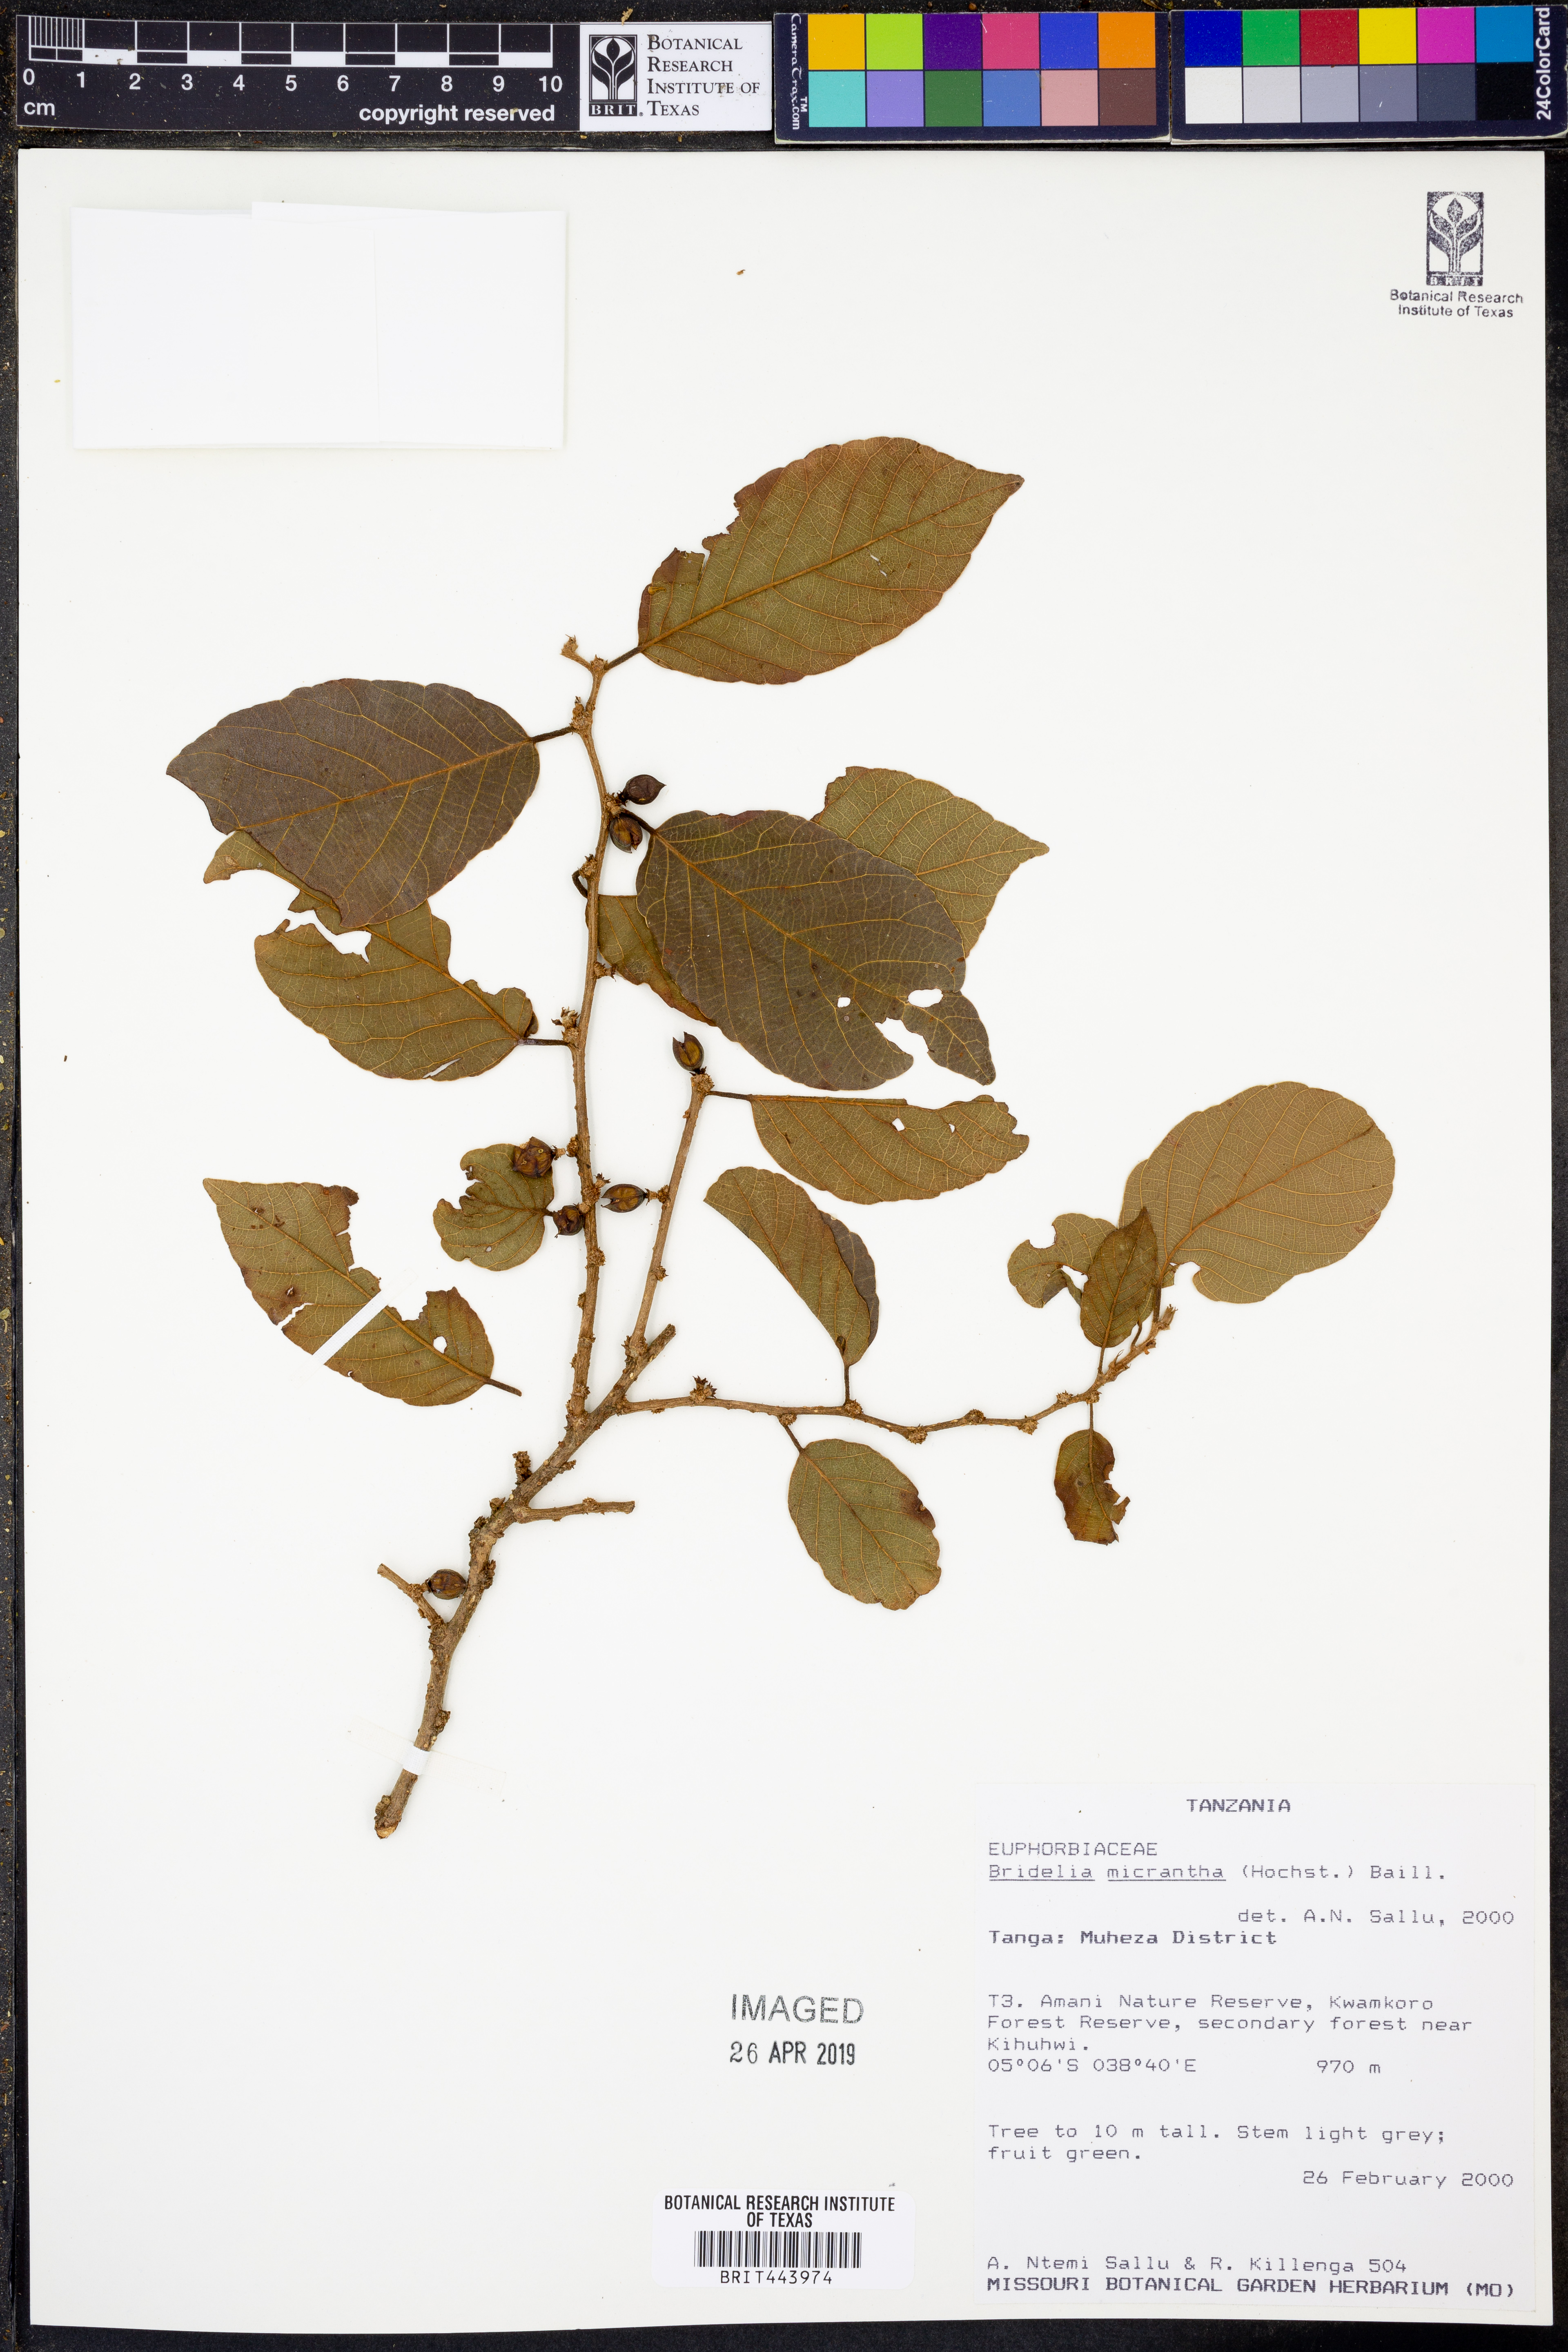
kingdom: Plantae
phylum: Tracheophyta
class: Magnoliopsida
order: Malpighiales
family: Phyllanthaceae
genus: Bridelia
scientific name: Bridelia micrantha
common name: Bridelia
